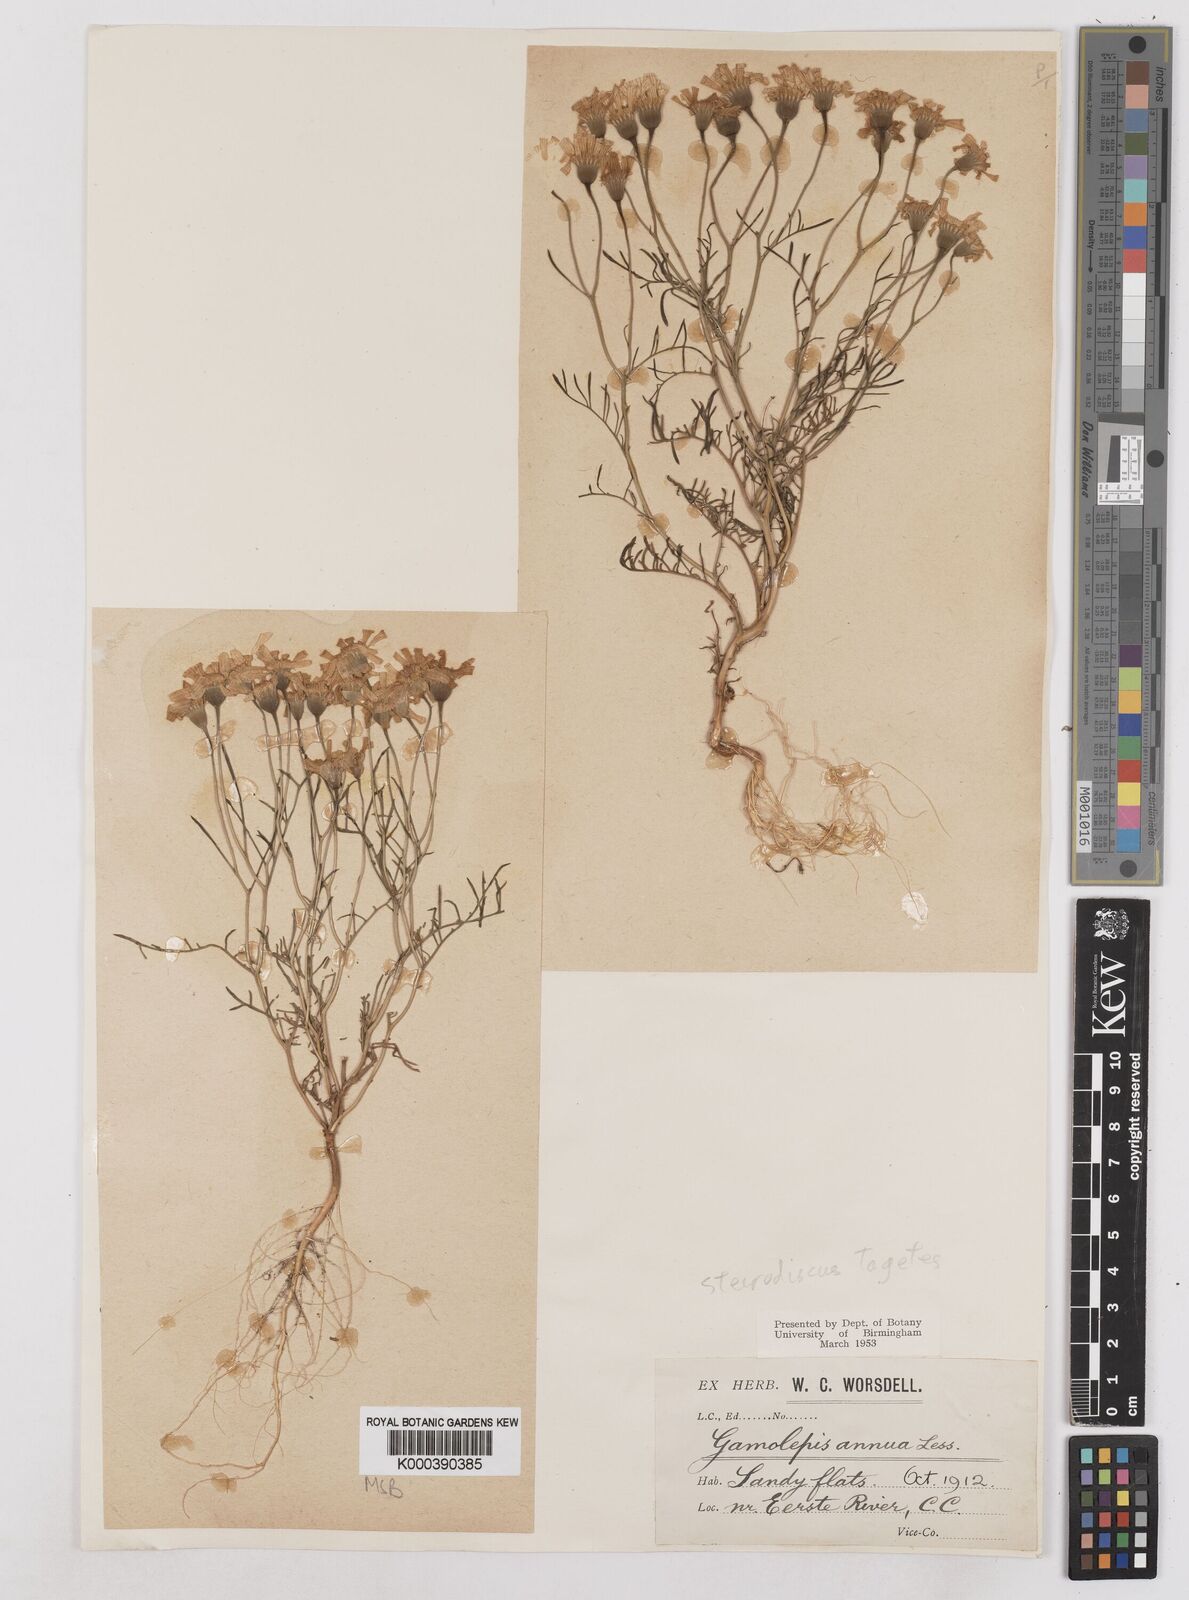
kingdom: Plantae
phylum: Tracheophyta
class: Magnoliopsida
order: Asterales
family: Asteraceae
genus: Steirodiscus
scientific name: Steirodiscus tagetes
